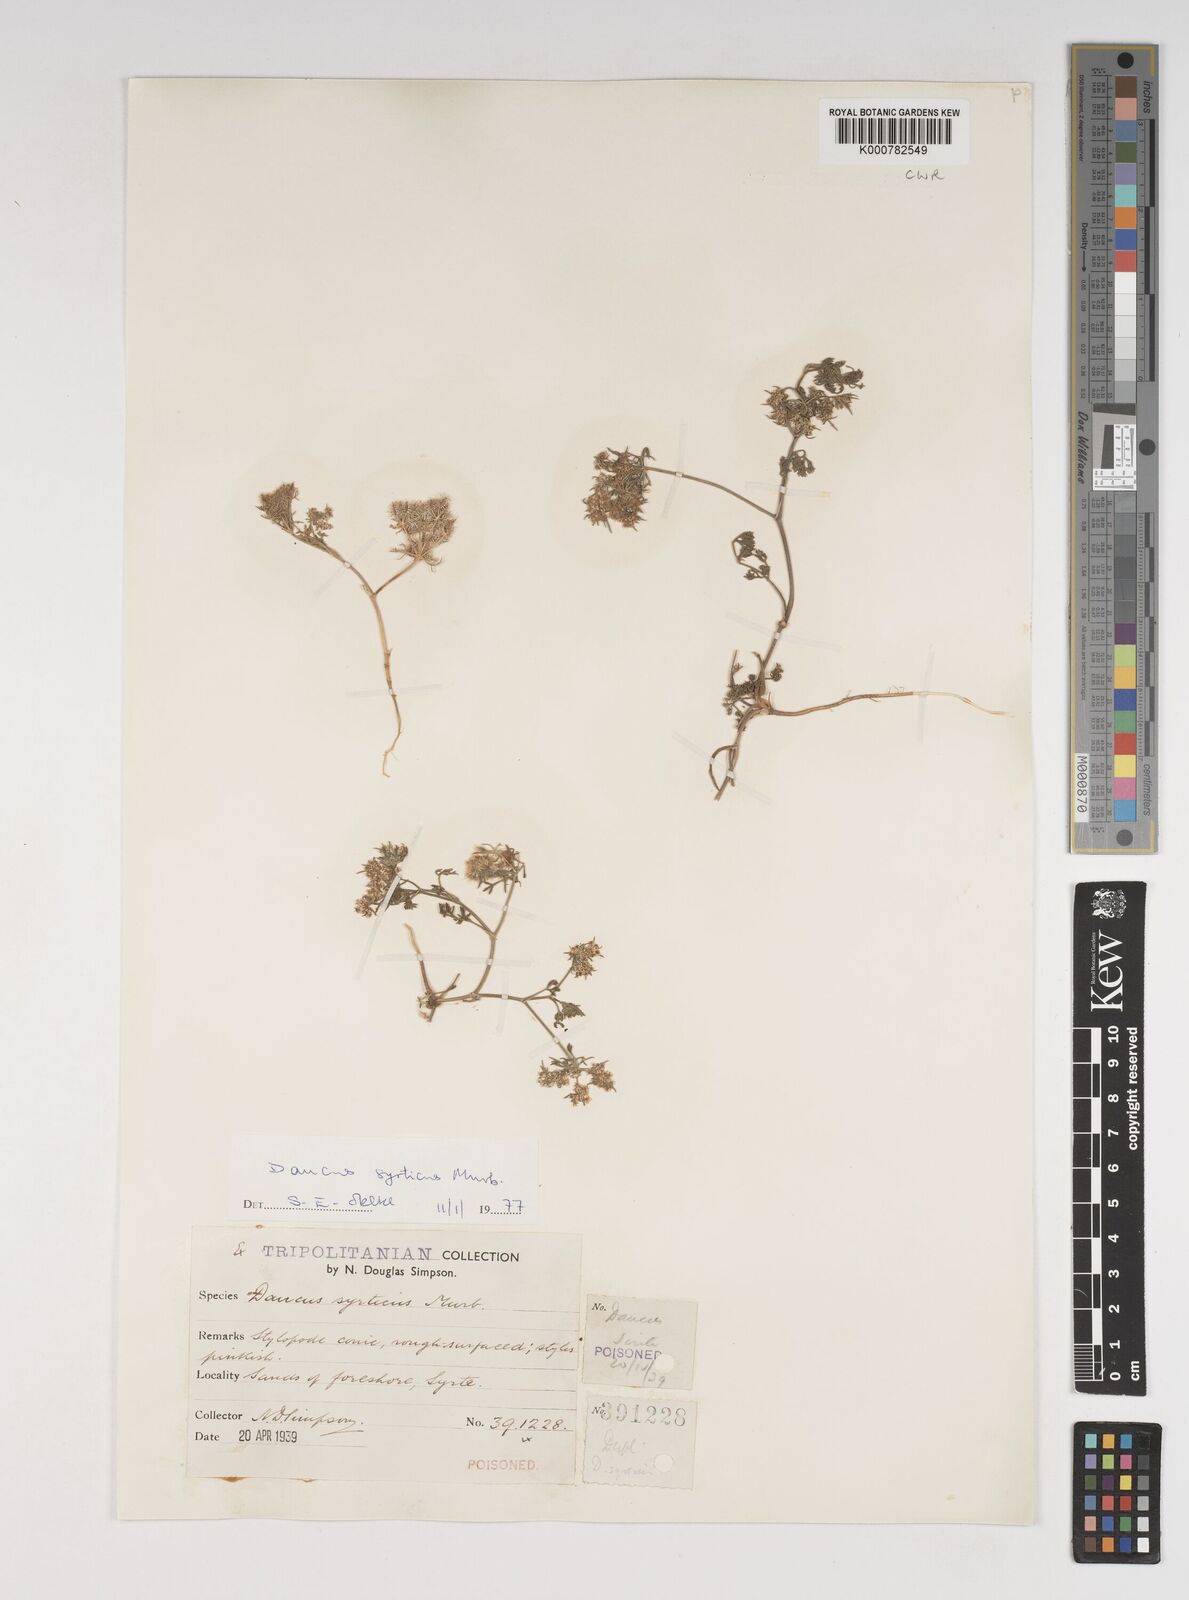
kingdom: Plantae
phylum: Tracheophyta
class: Magnoliopsida
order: Apiales
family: Apiaceae
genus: Daucus
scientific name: Daucus syrticus
